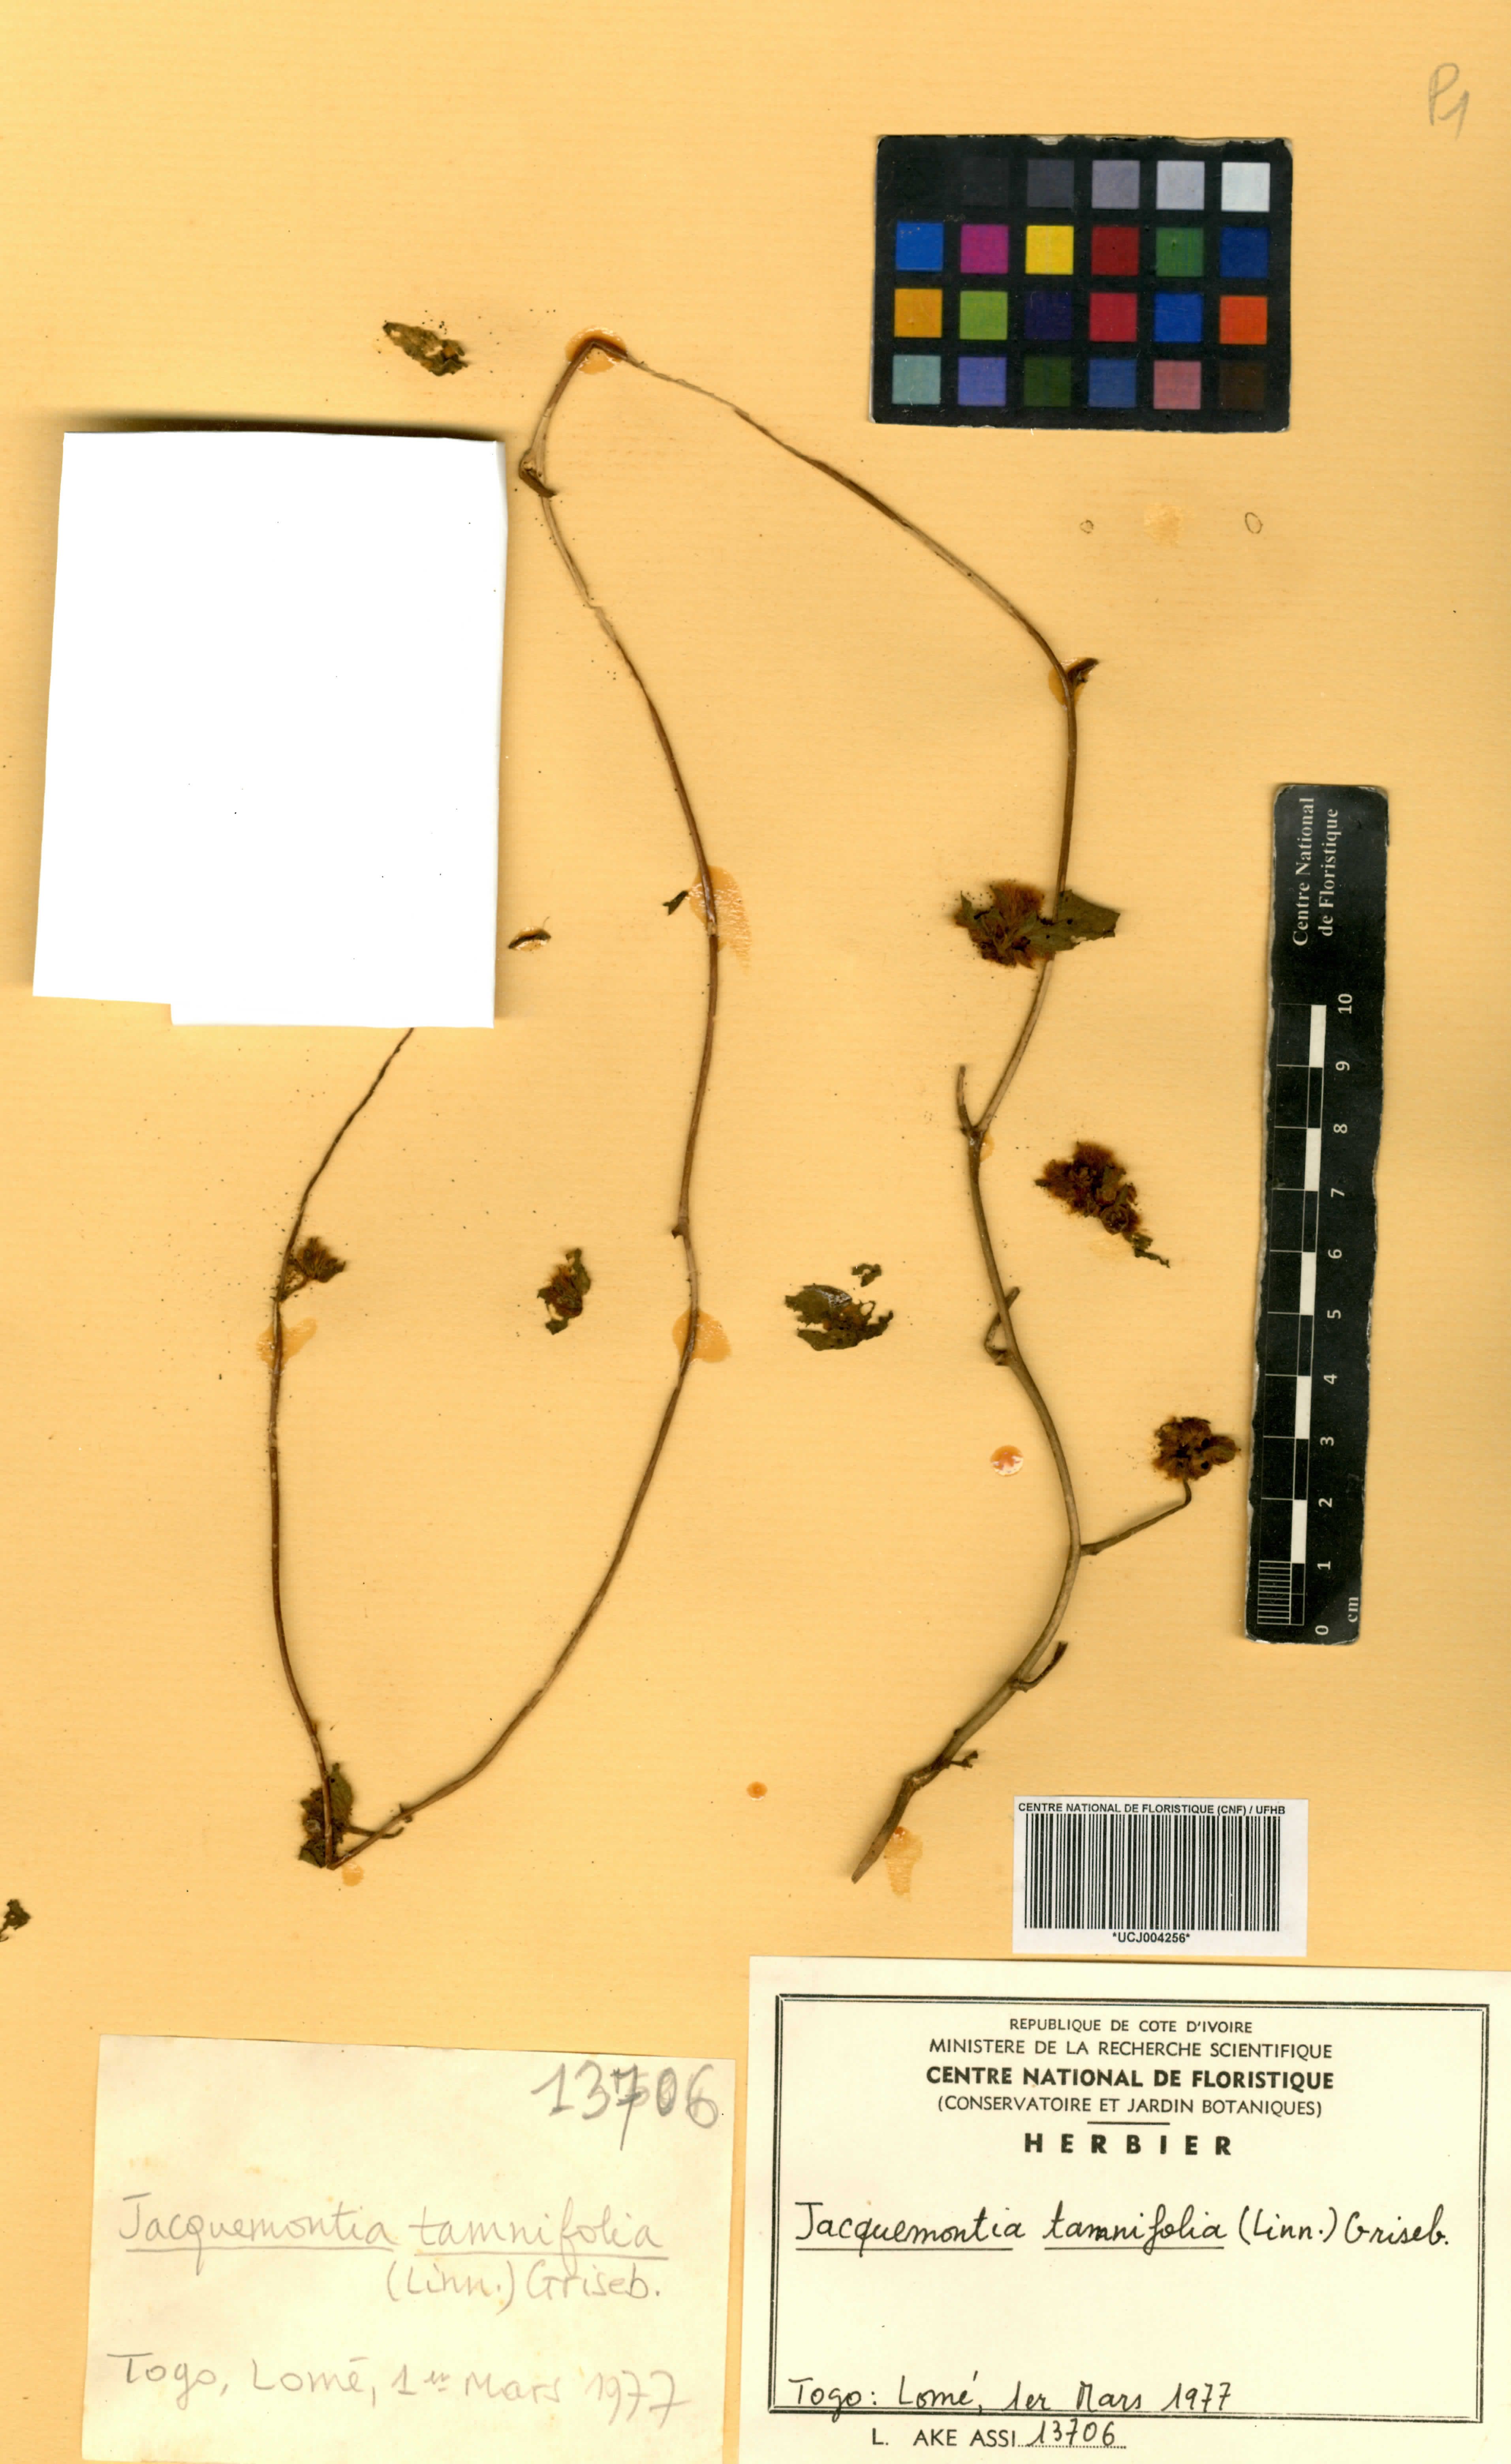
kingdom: Plantae
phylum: Tracheophyta
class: Magnoliopsida
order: Solanales
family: Convolvulaceae
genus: Jacquemontia
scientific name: Jacquemontia tamnifolia
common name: Hairy clustervine
